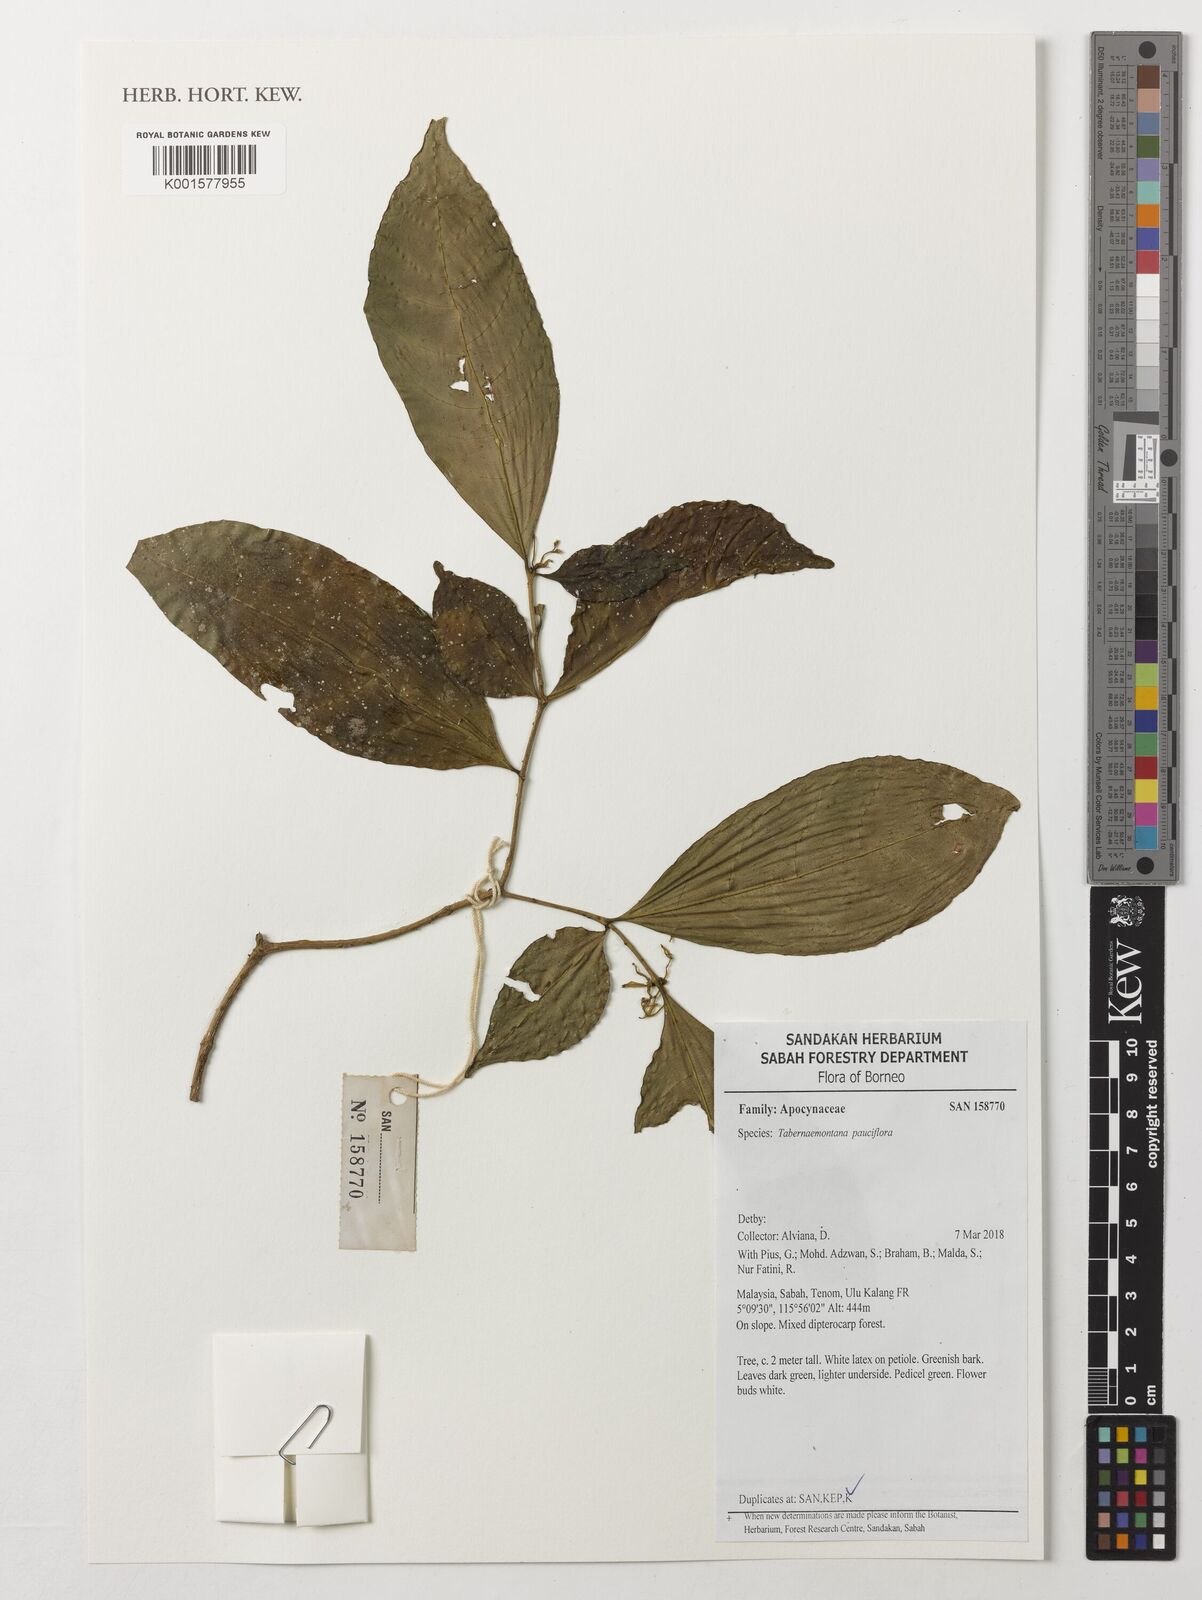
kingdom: Plantae
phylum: Tracheophyta
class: Magnoliopsida
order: Gentianales
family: Apocynaceae
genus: Tabernaemontana
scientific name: Tabernaemontana pauciflora
